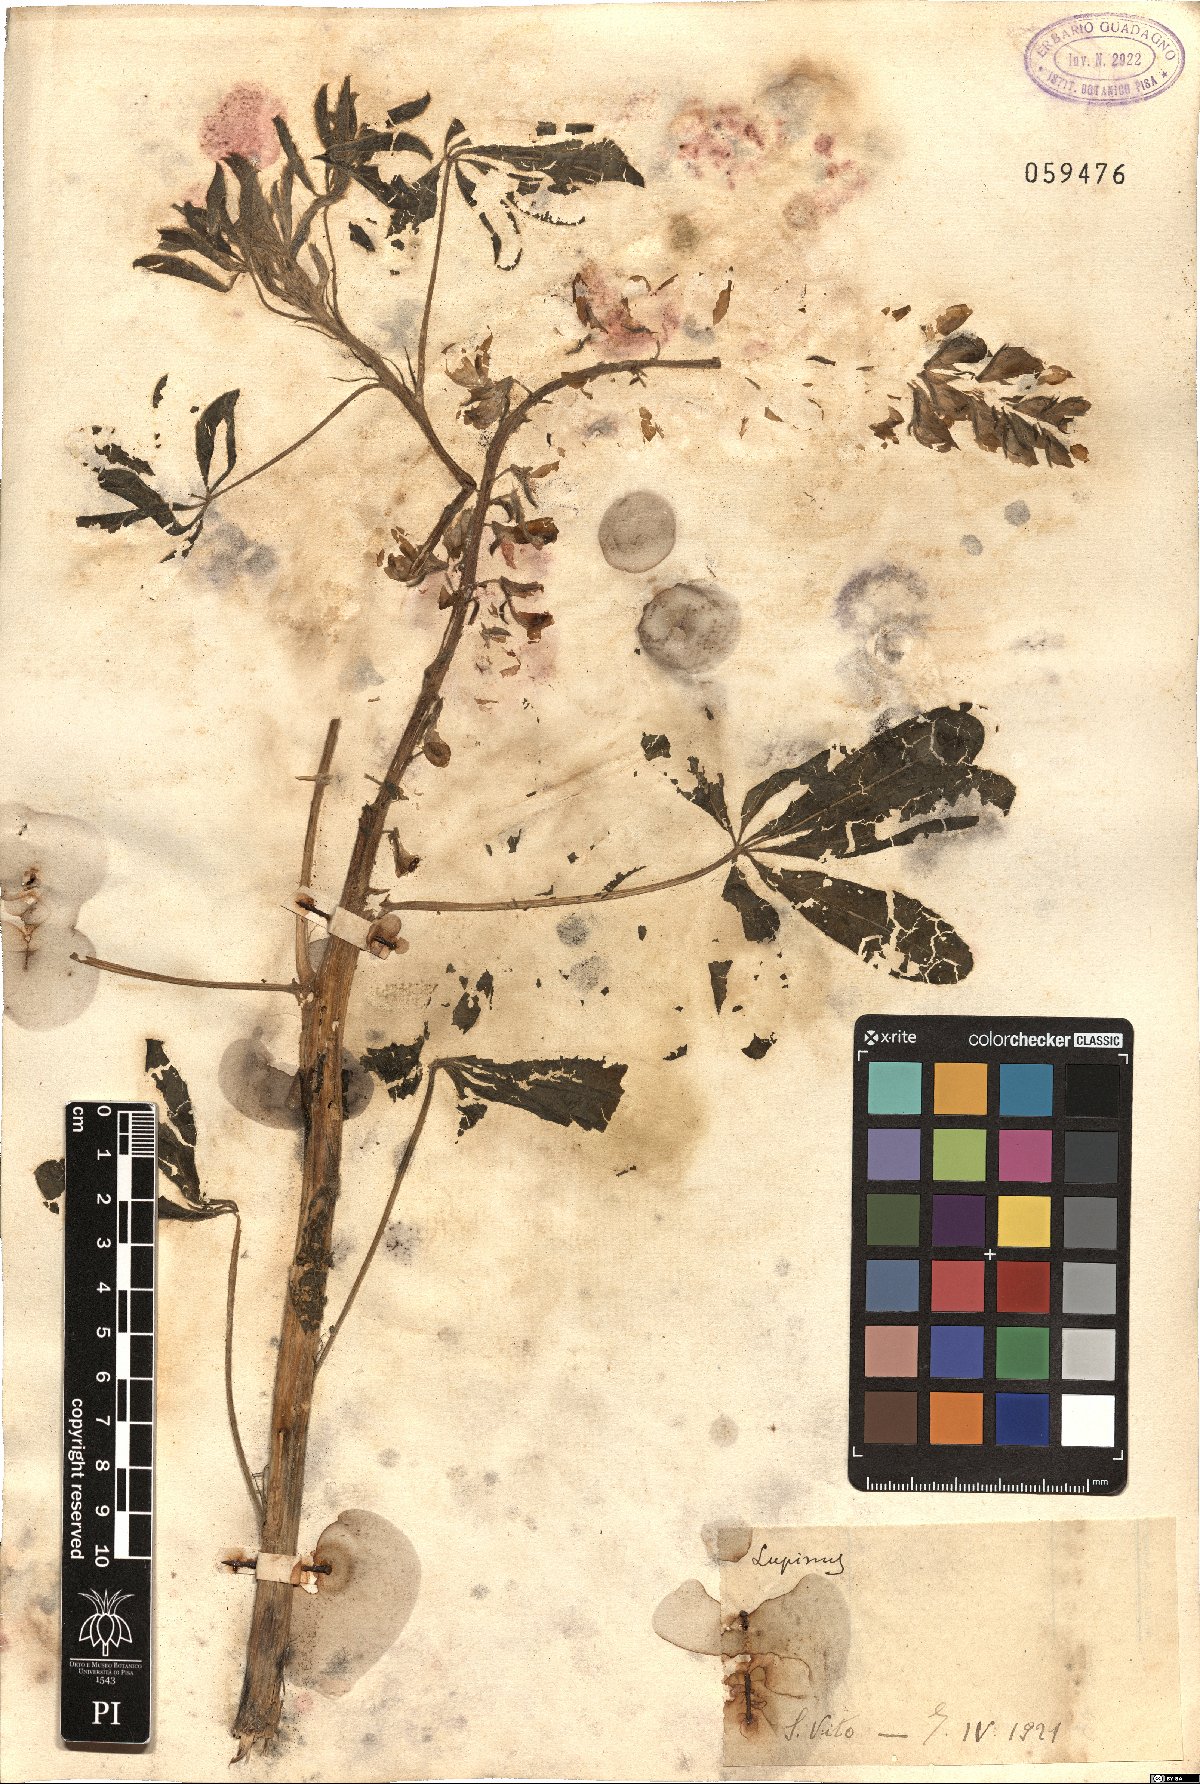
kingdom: Plantae
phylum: Tracheophyta
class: Magnoliopsida
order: Fabales
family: Fabaceae
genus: Lupinus
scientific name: Lupinus
